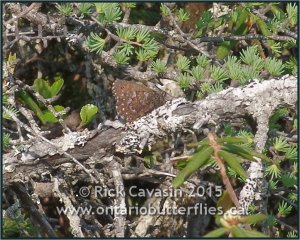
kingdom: Animalia
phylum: Arthropoda
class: Insecta
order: Lepidoptera
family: Nymphalidae
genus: Oeneis
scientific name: Oeneis jutta
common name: Jutta Arctic
